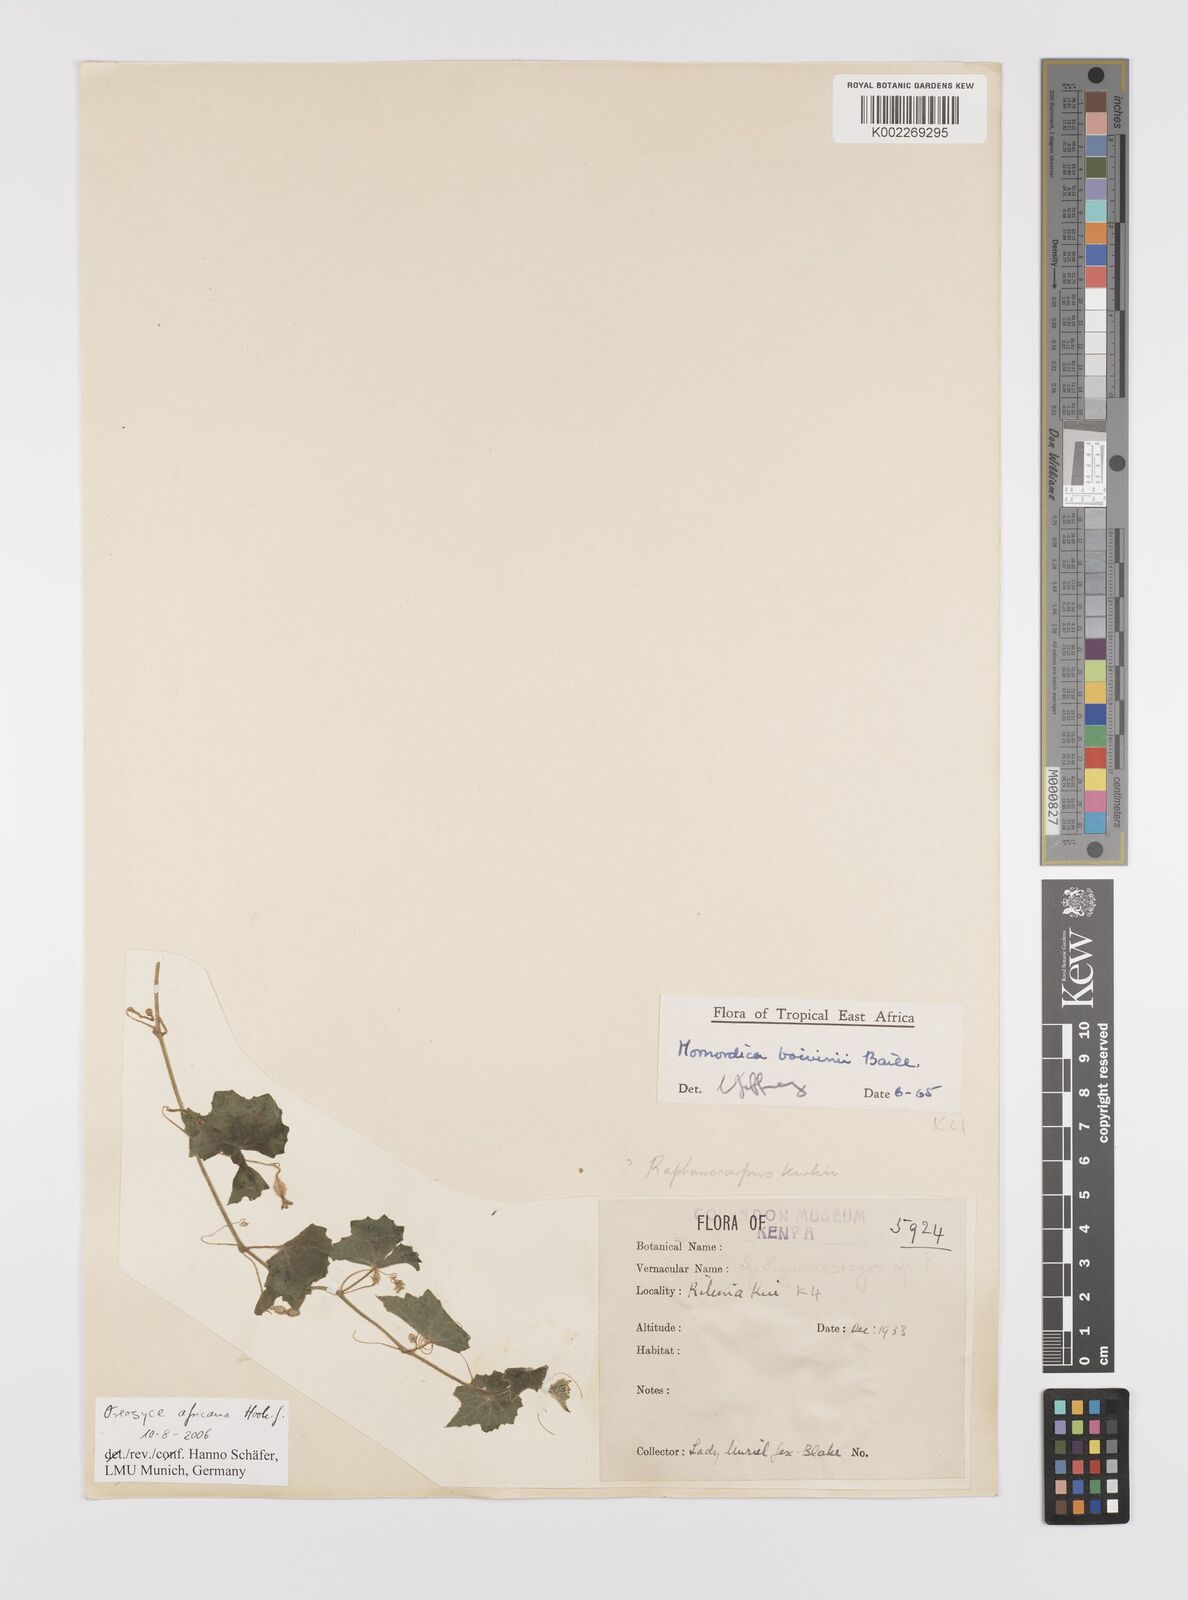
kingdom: Plantae
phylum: Tracheophyta
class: Magnoliopsida
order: Cucurbitales
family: Cucurbitaceae
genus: Cucumis
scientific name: Cucumis oreosyce
